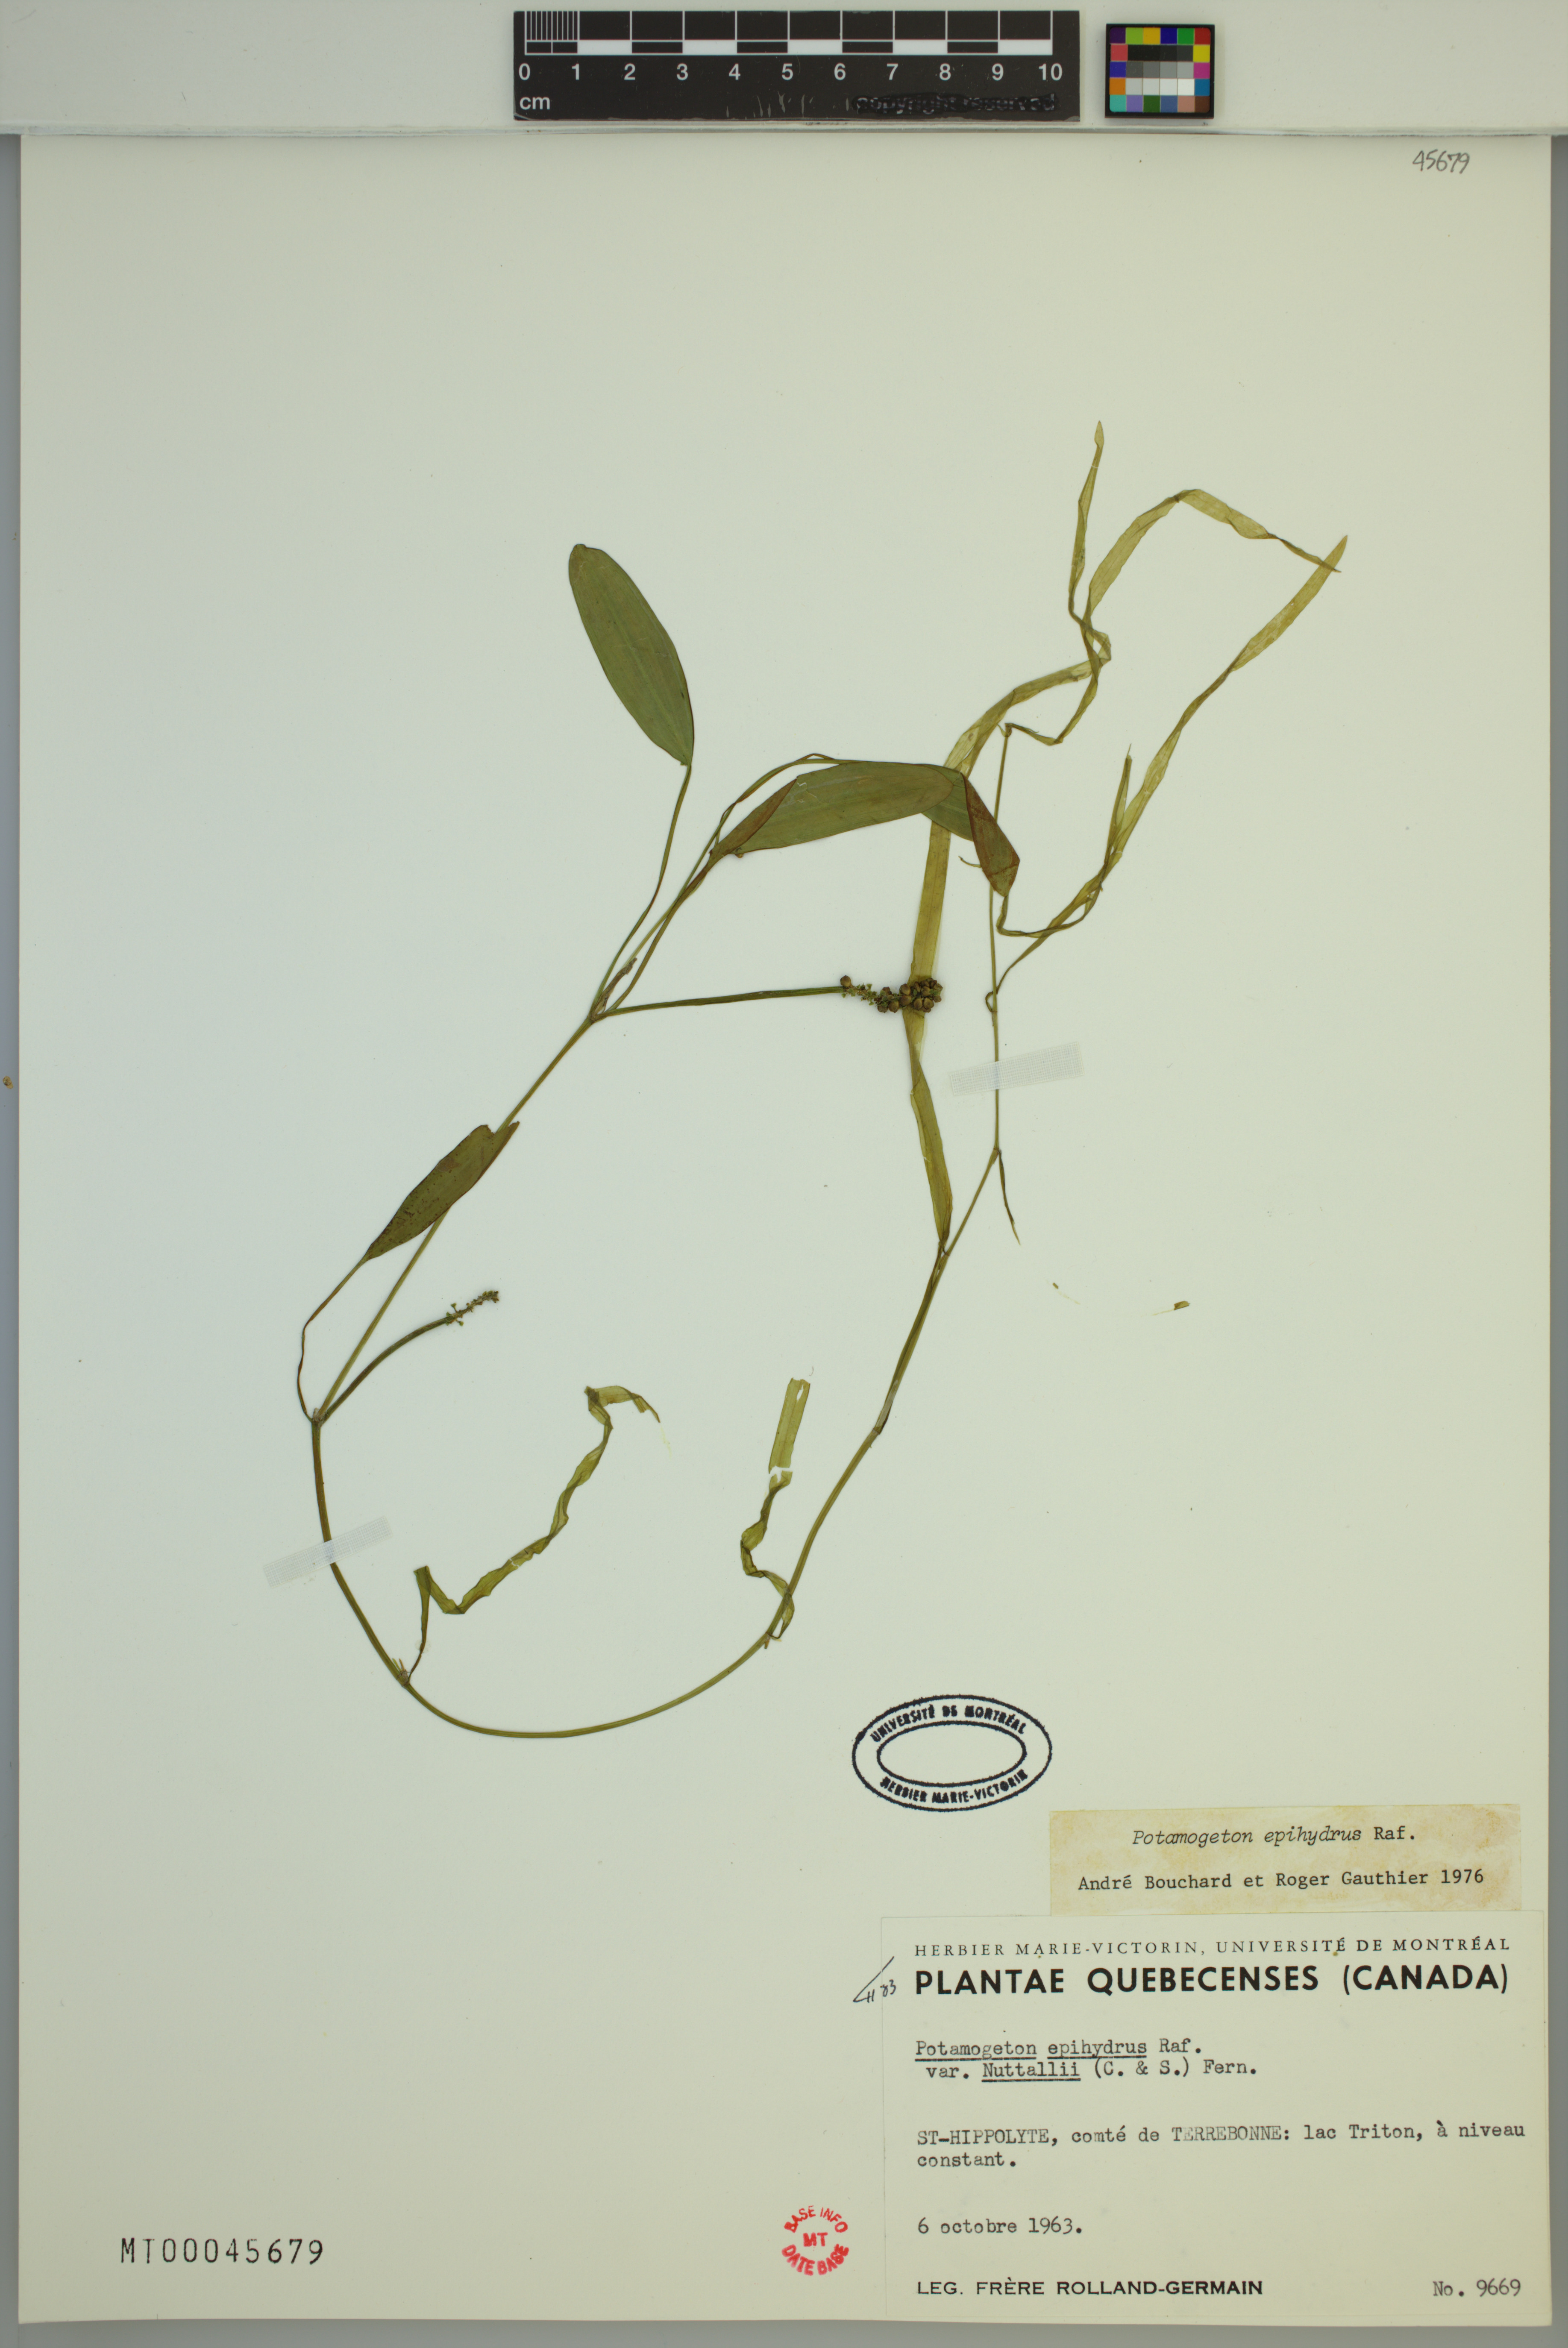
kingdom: Plantae
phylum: Tracheophyta
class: Liliopsida
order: Alismatales
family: Potamogetonaceae
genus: Potamogeton
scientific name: Potamogeton epihydrus
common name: American pondweed
